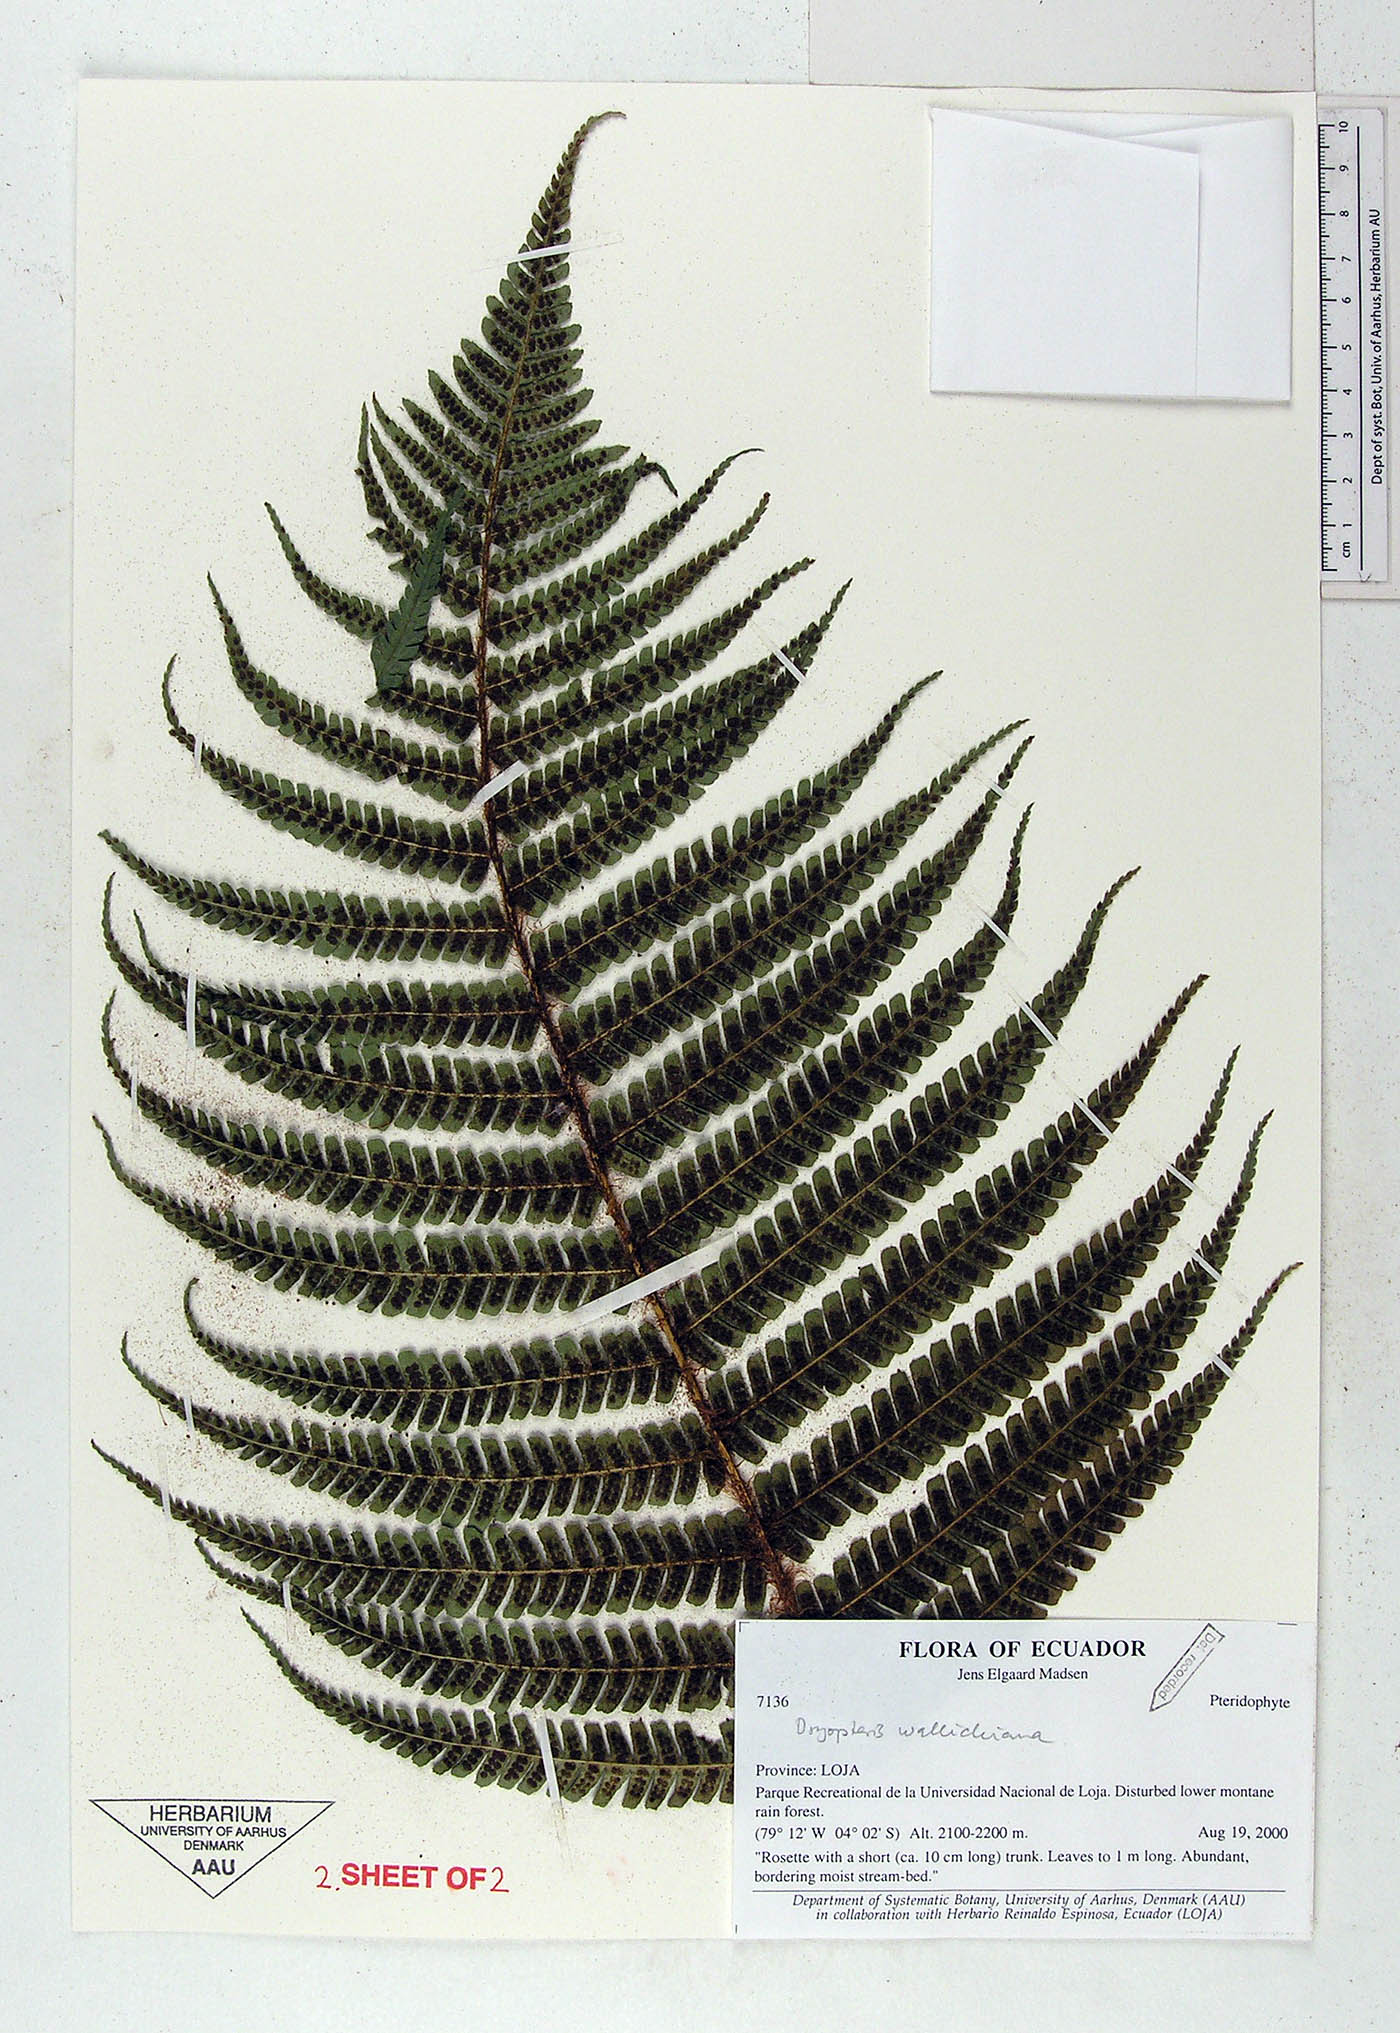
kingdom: Plantae
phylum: Tracheophyta
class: Polypodiopsida
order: Polypodiales
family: Dryopteridaceae
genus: Dryopteris
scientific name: Dryopteris wallichiana
